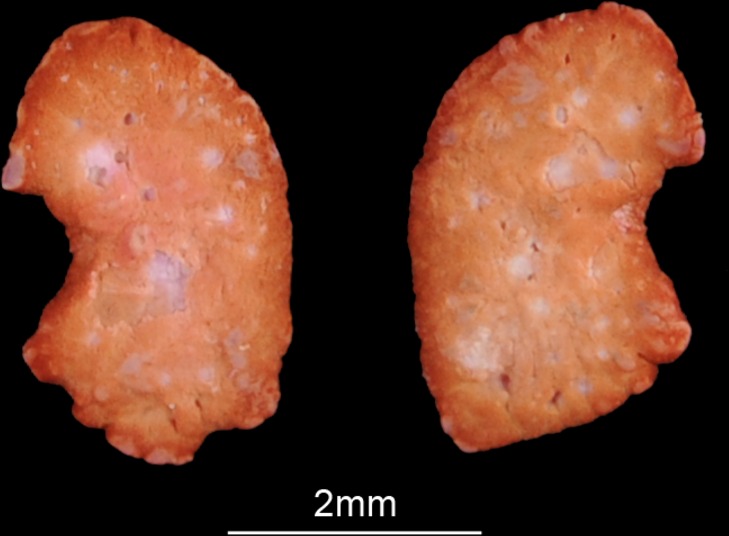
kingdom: Animalia
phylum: Chordata
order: Siluriformes
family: Schilbeidae
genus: Schilbe
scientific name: Schilbe intermedius
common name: Silver catfish
